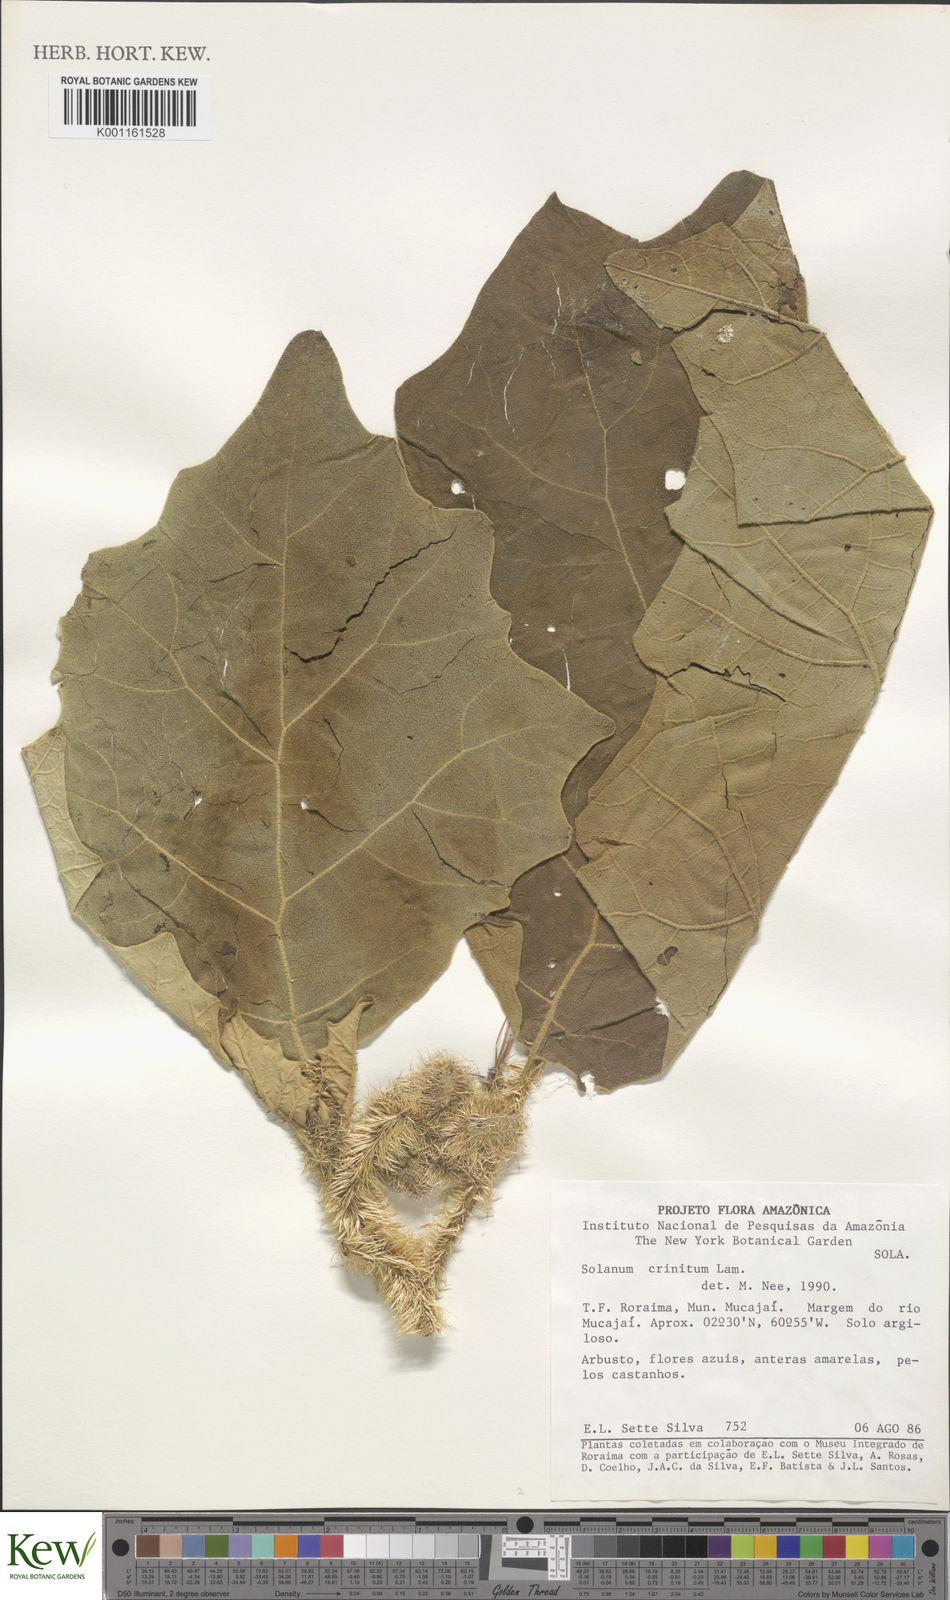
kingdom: Plantae
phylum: Tracheophyta
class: Magnoliopsida
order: Solanales
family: Solanaceae
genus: Solanum
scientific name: Solanum crinitum
